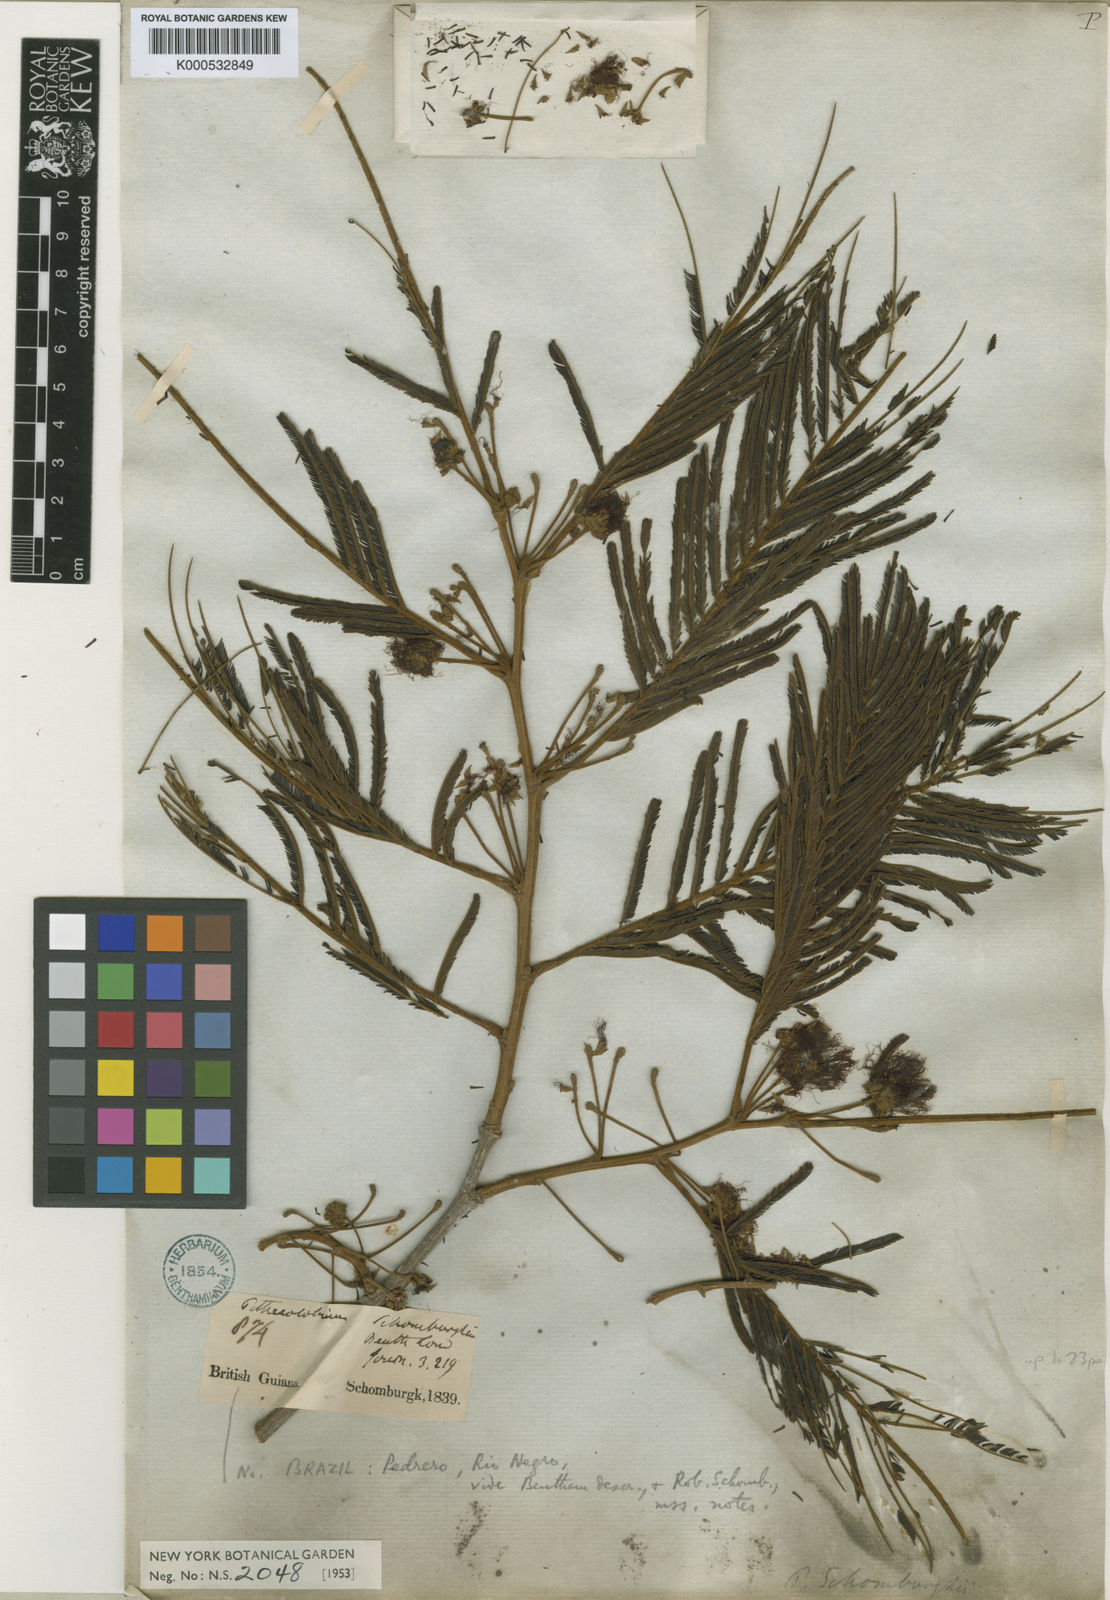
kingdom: Plantae
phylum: Tracheophyta
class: Magnoliopsida
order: Fabales
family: Fabaceae
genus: Enterolobium
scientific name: Enterolobium schomburgkii
